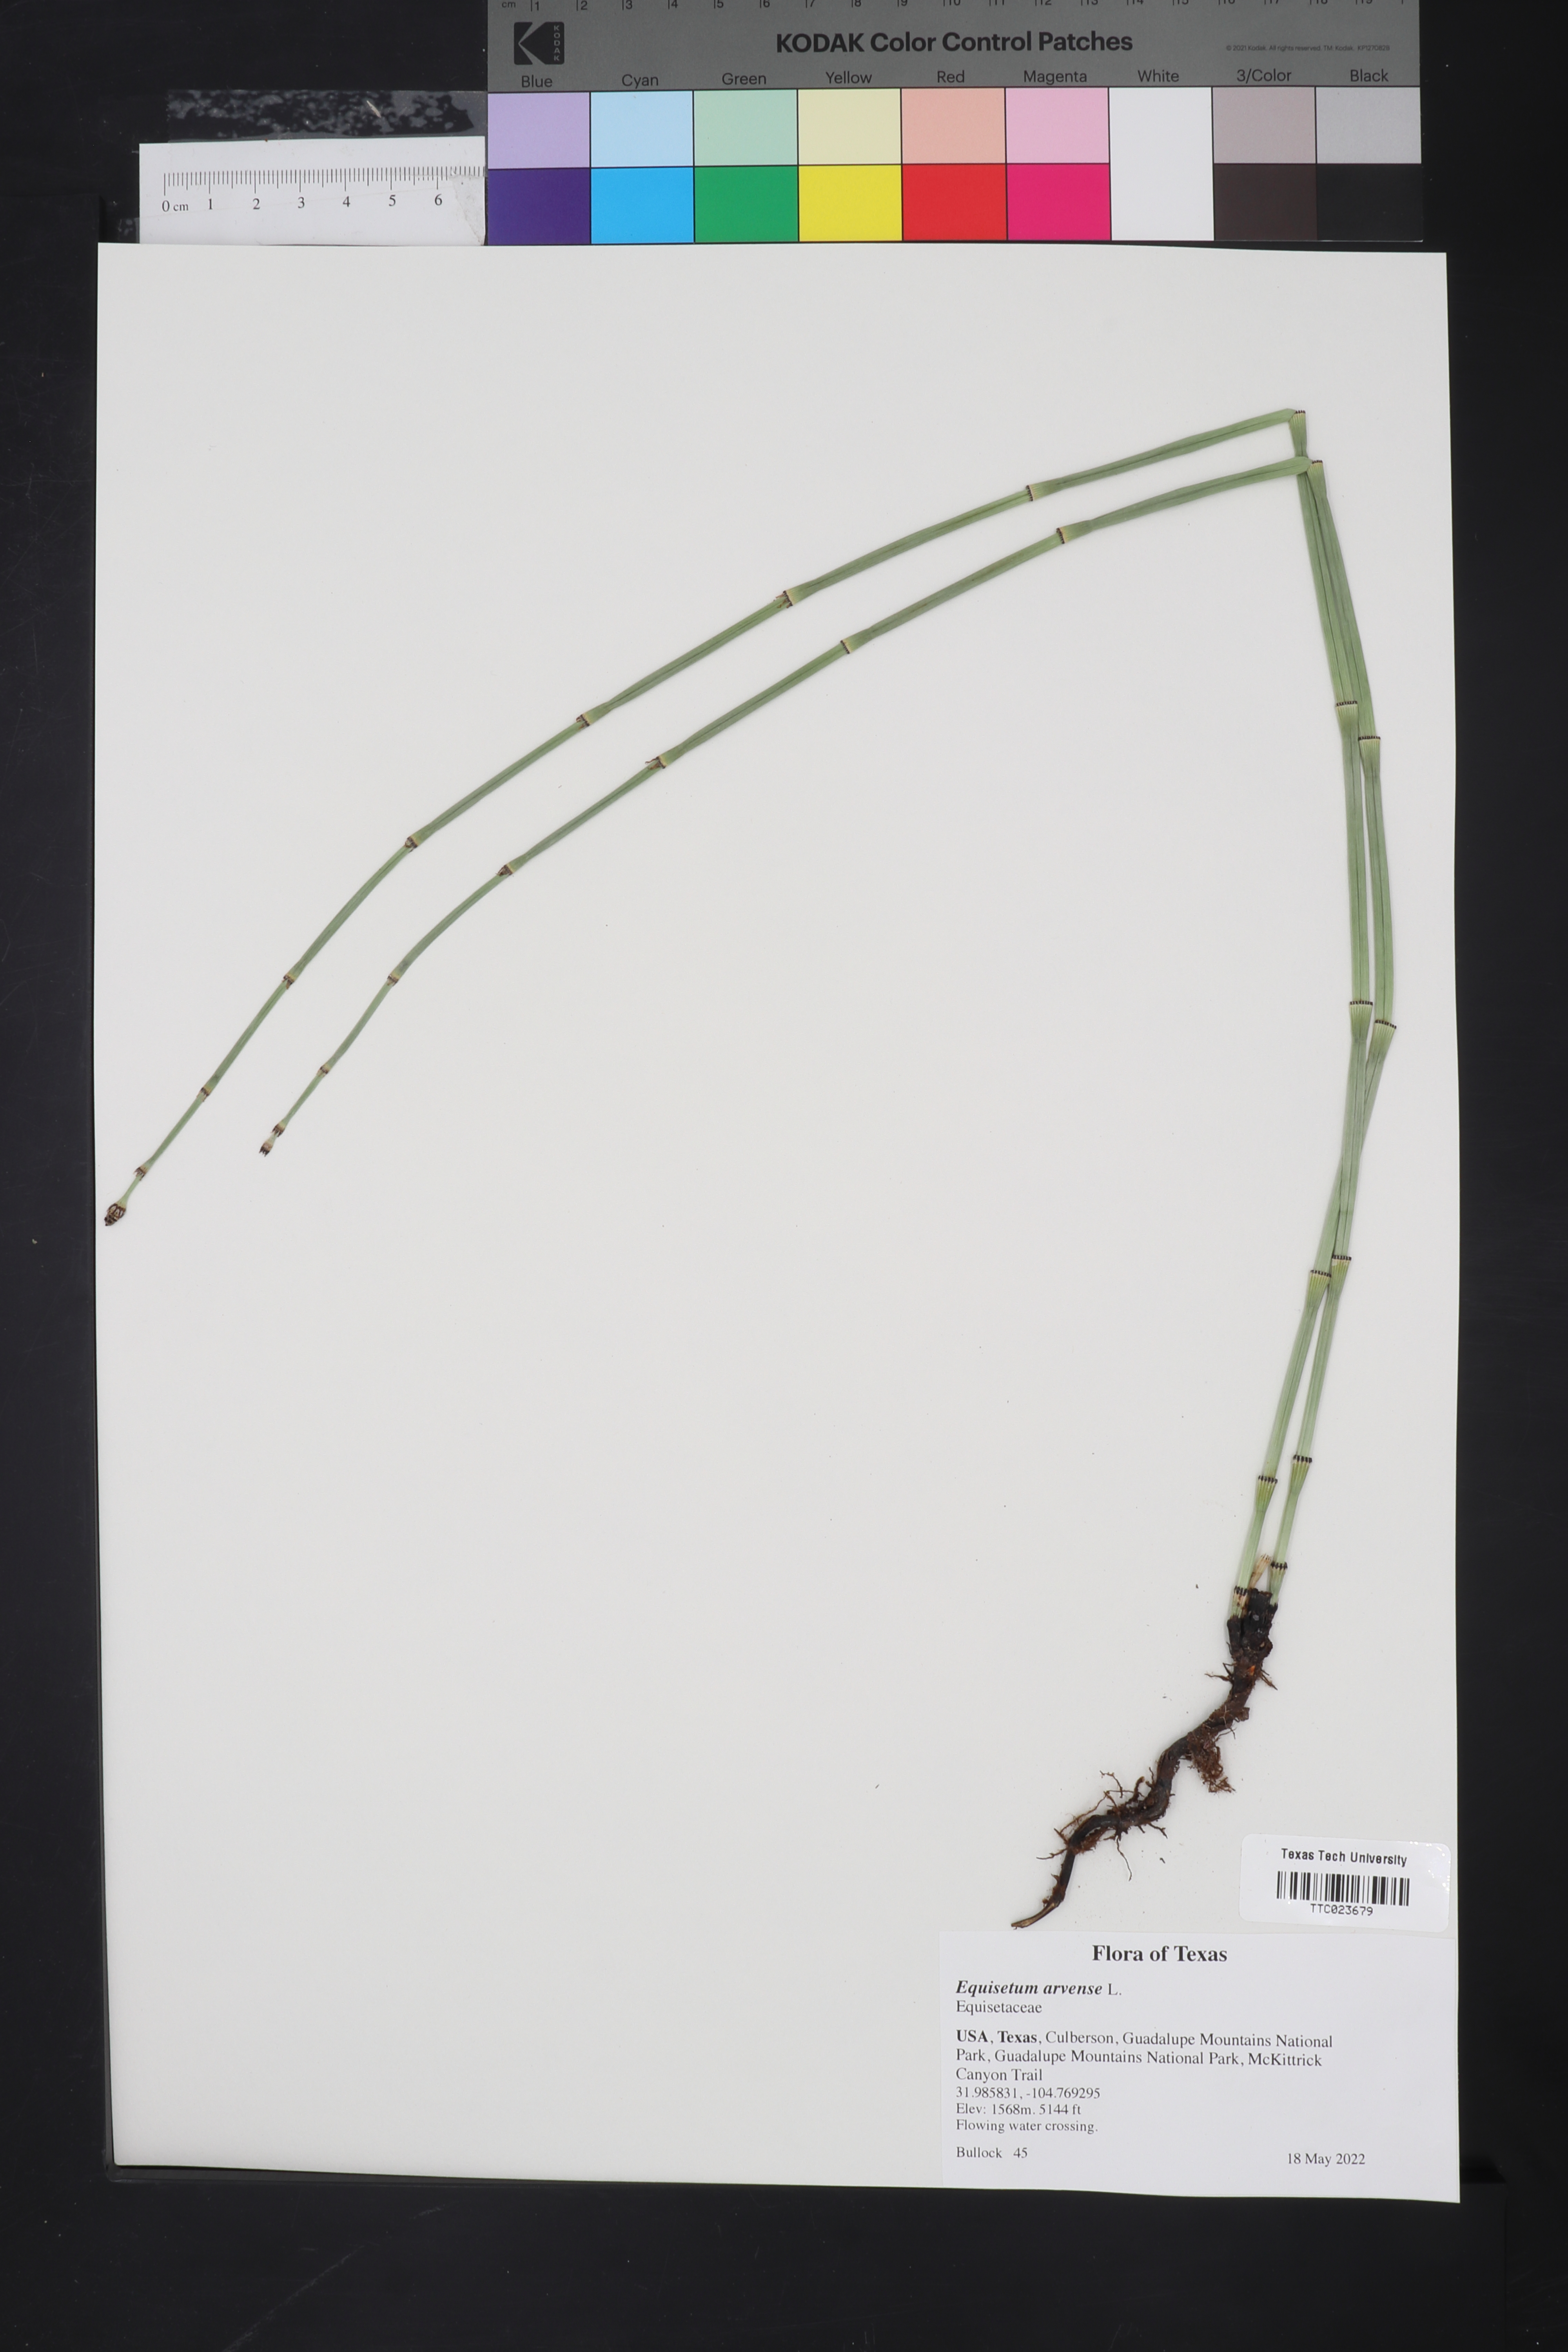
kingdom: Plantae
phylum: Tracheophyta
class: Polypodiopsida
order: Equisetales
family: Equisetaceae
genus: Equisetum
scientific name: Equisetum arvense
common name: Field horsetail
